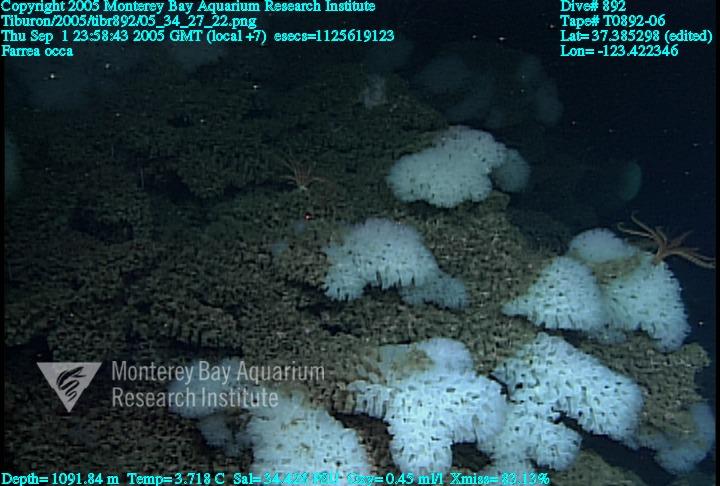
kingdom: Animalia
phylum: Porifera
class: Hexactinellida
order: Sceptrulophora
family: Farreidae
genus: Farrea
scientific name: Farrea occa
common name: Reversed glass sponge
